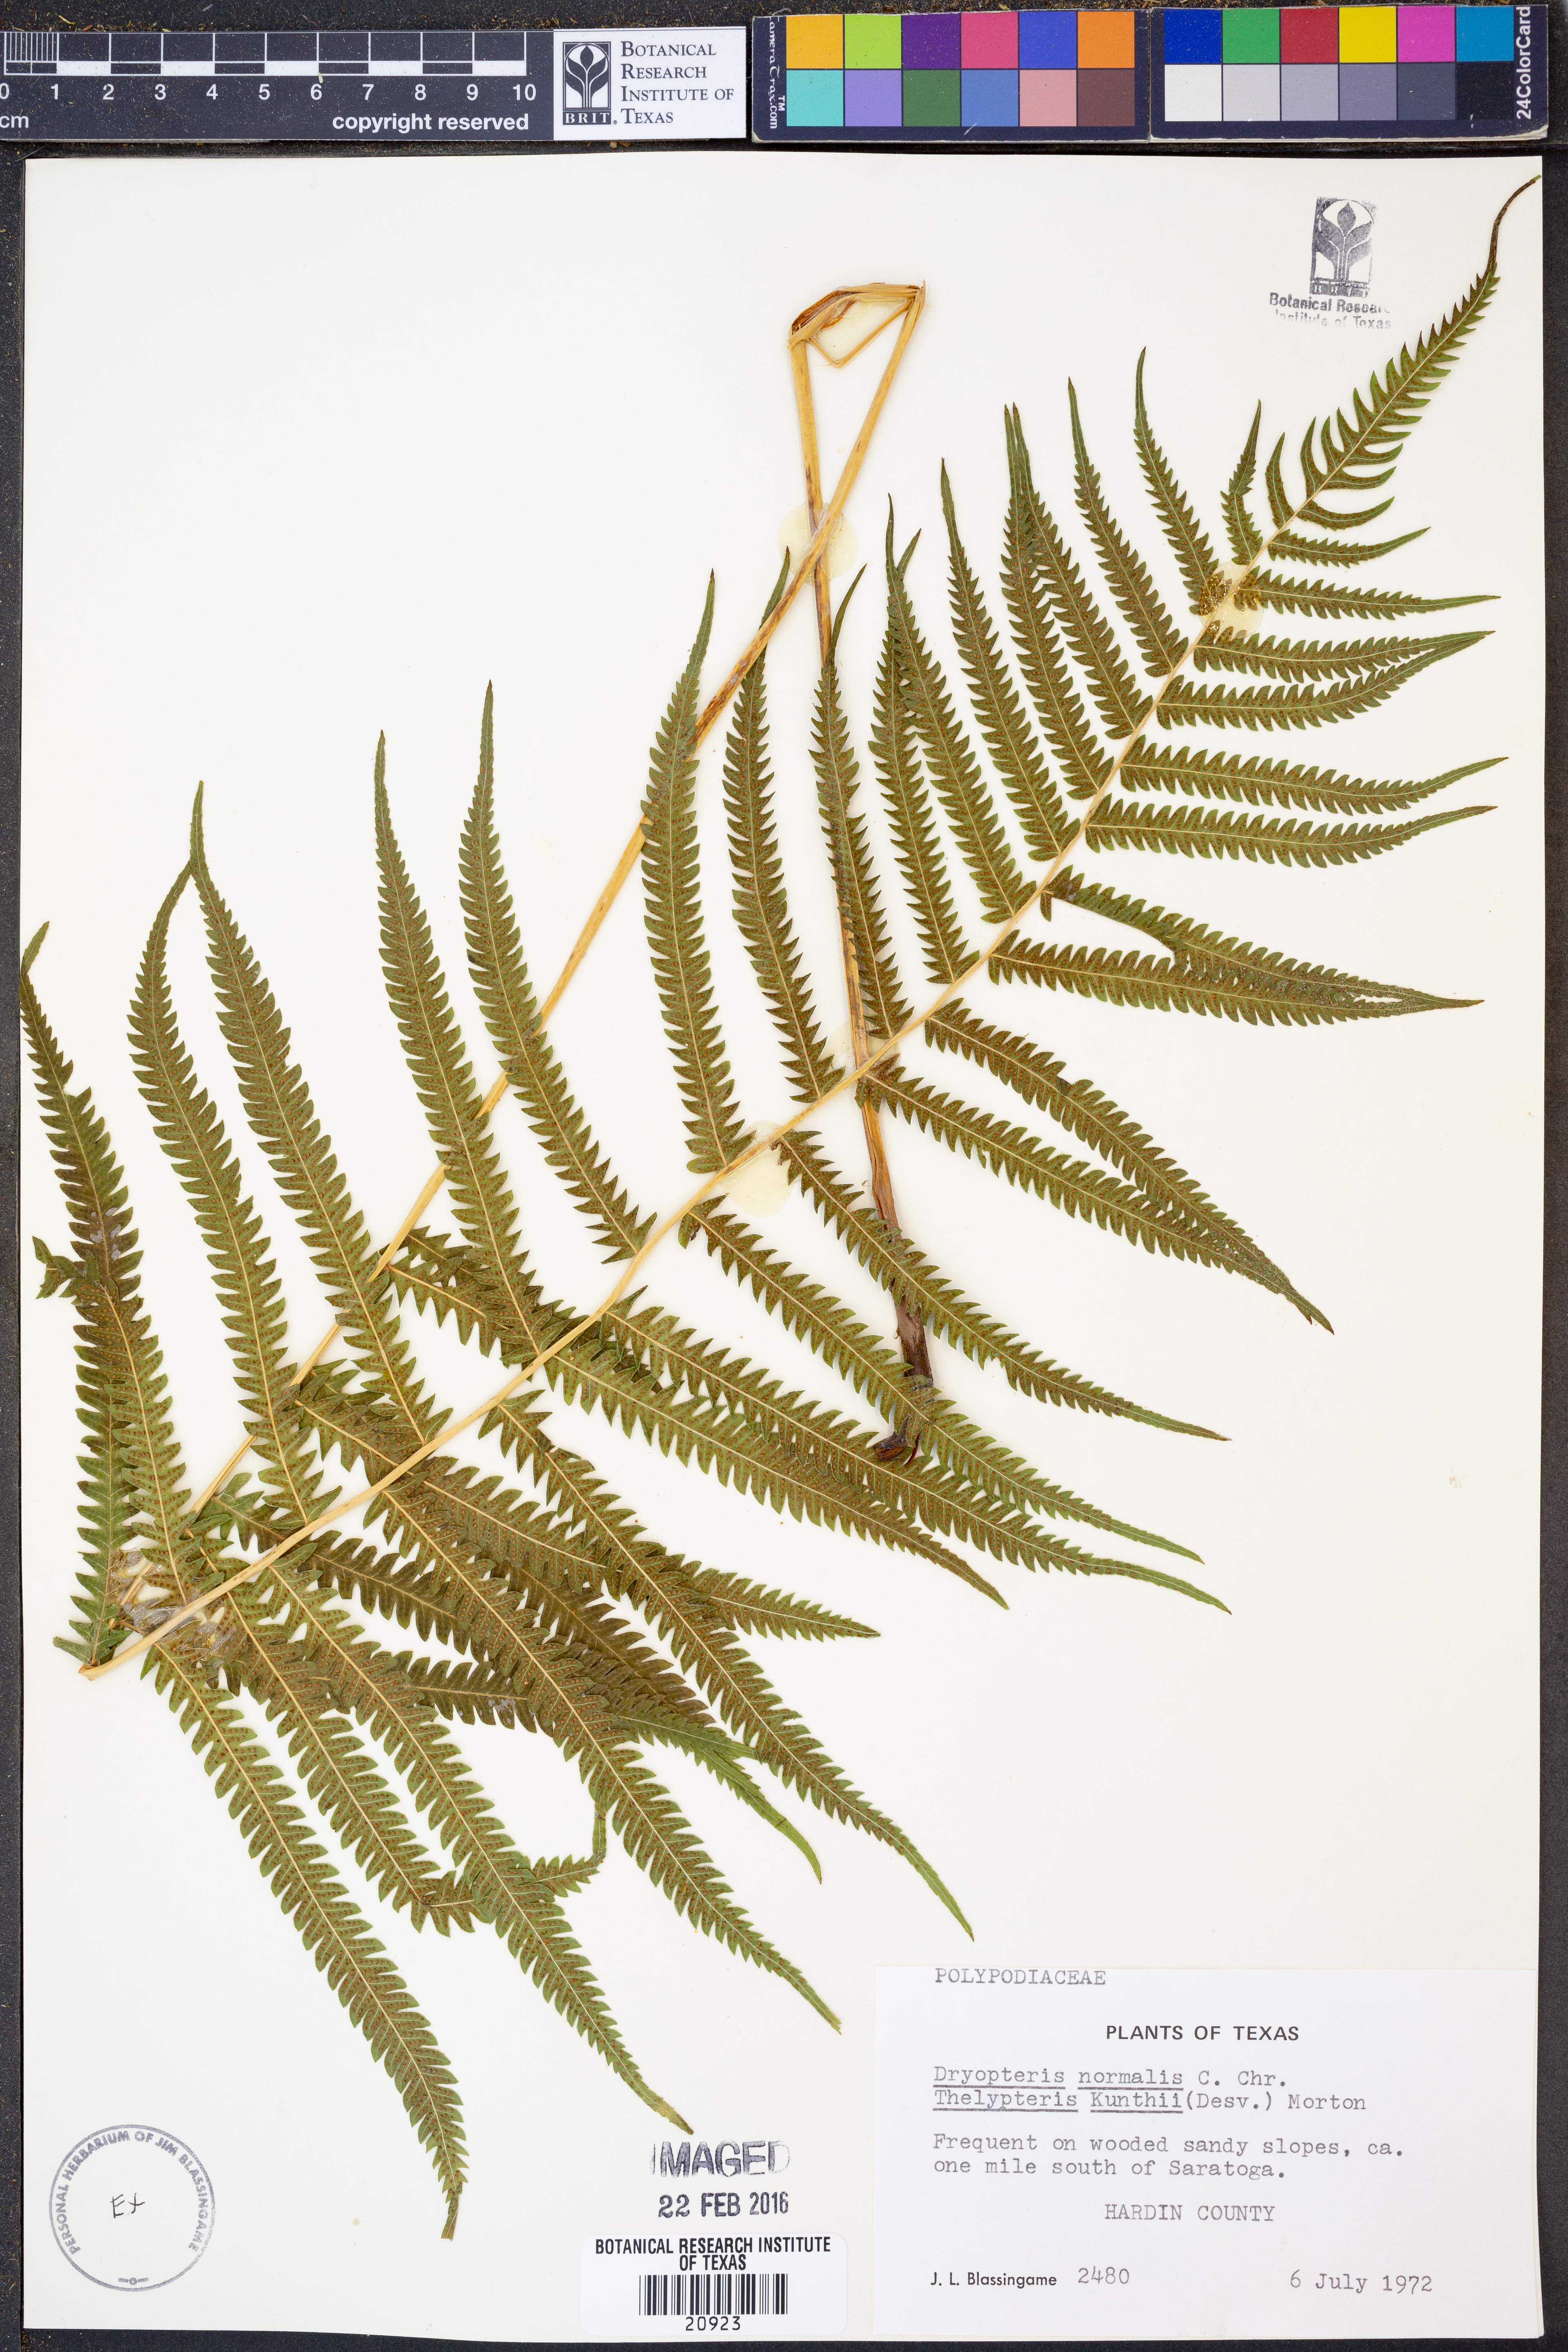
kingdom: Plantae
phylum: Tracheophyta
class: Polypodiopsida
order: Polypodiales
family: Thelypteridaceae
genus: Pelazoneuron
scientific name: Pelazoneuron kunthii
